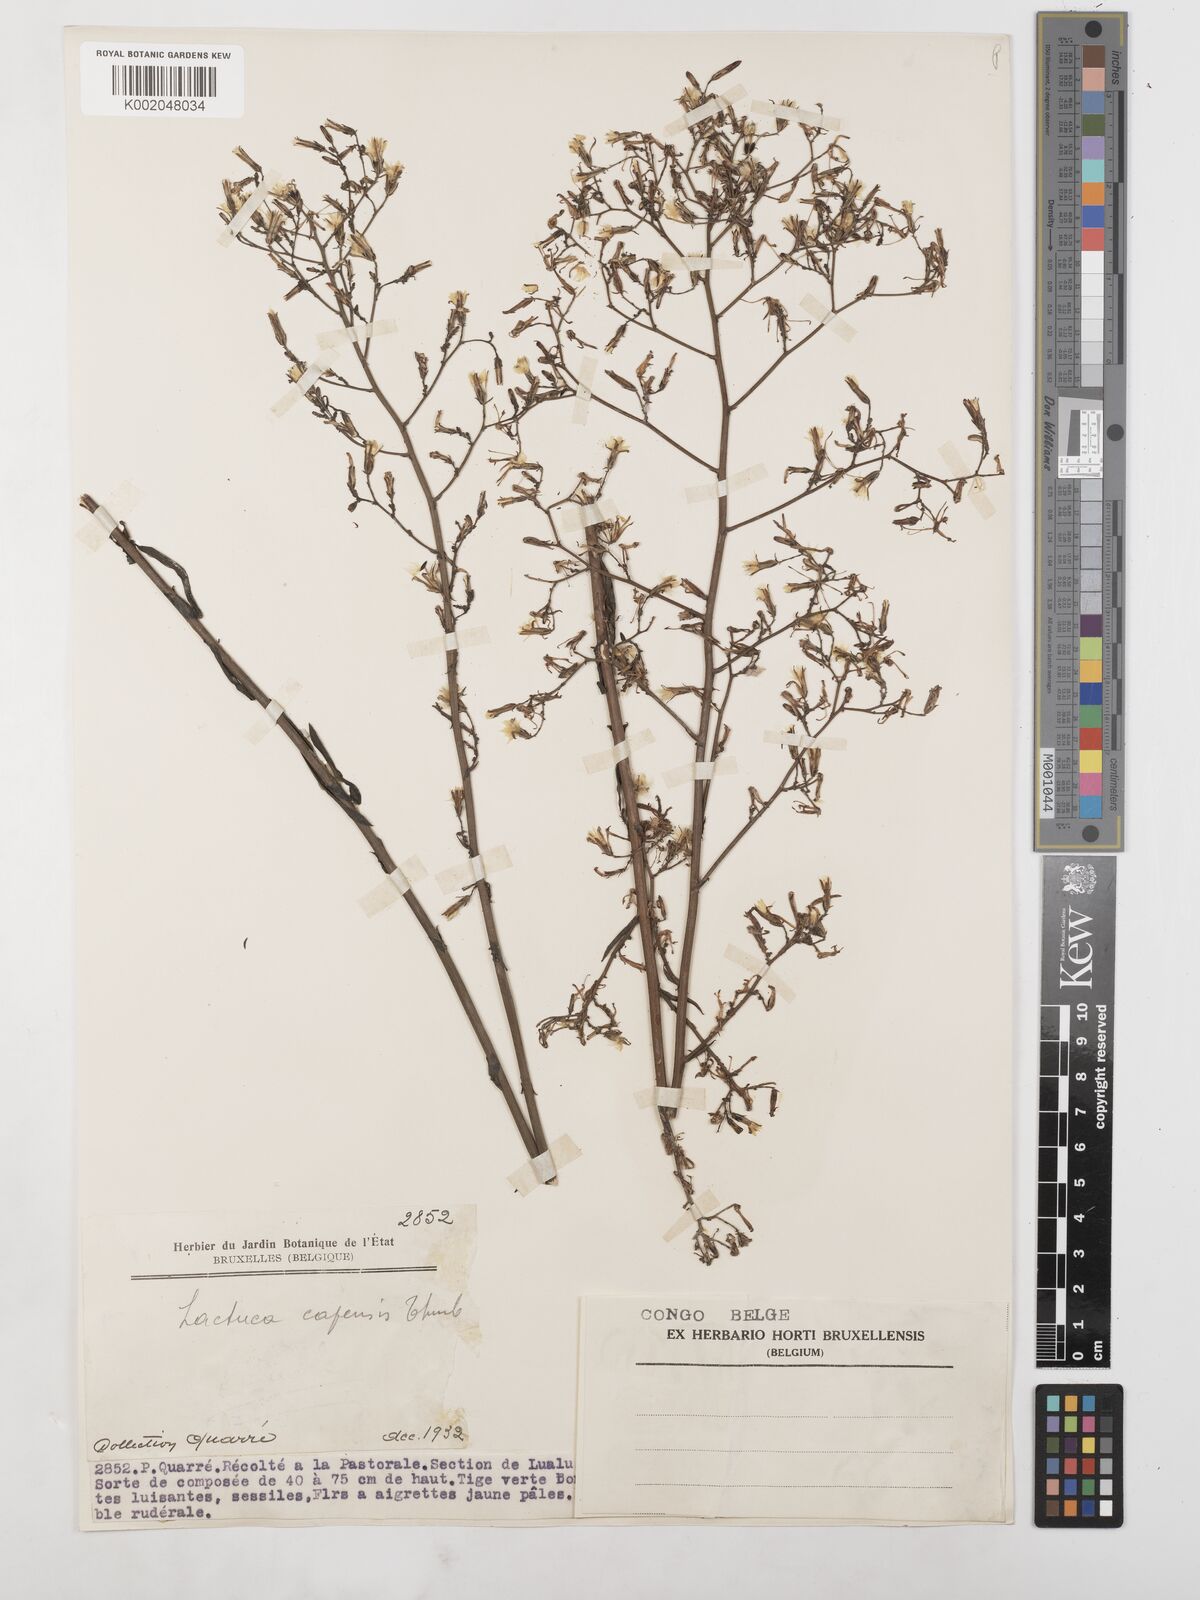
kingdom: Plantae
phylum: Tracheophyta
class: Magnoliopsida
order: Asterales
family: Asteraceae
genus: Lactuca
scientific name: Lactuca inermis
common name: Wild lettuce
